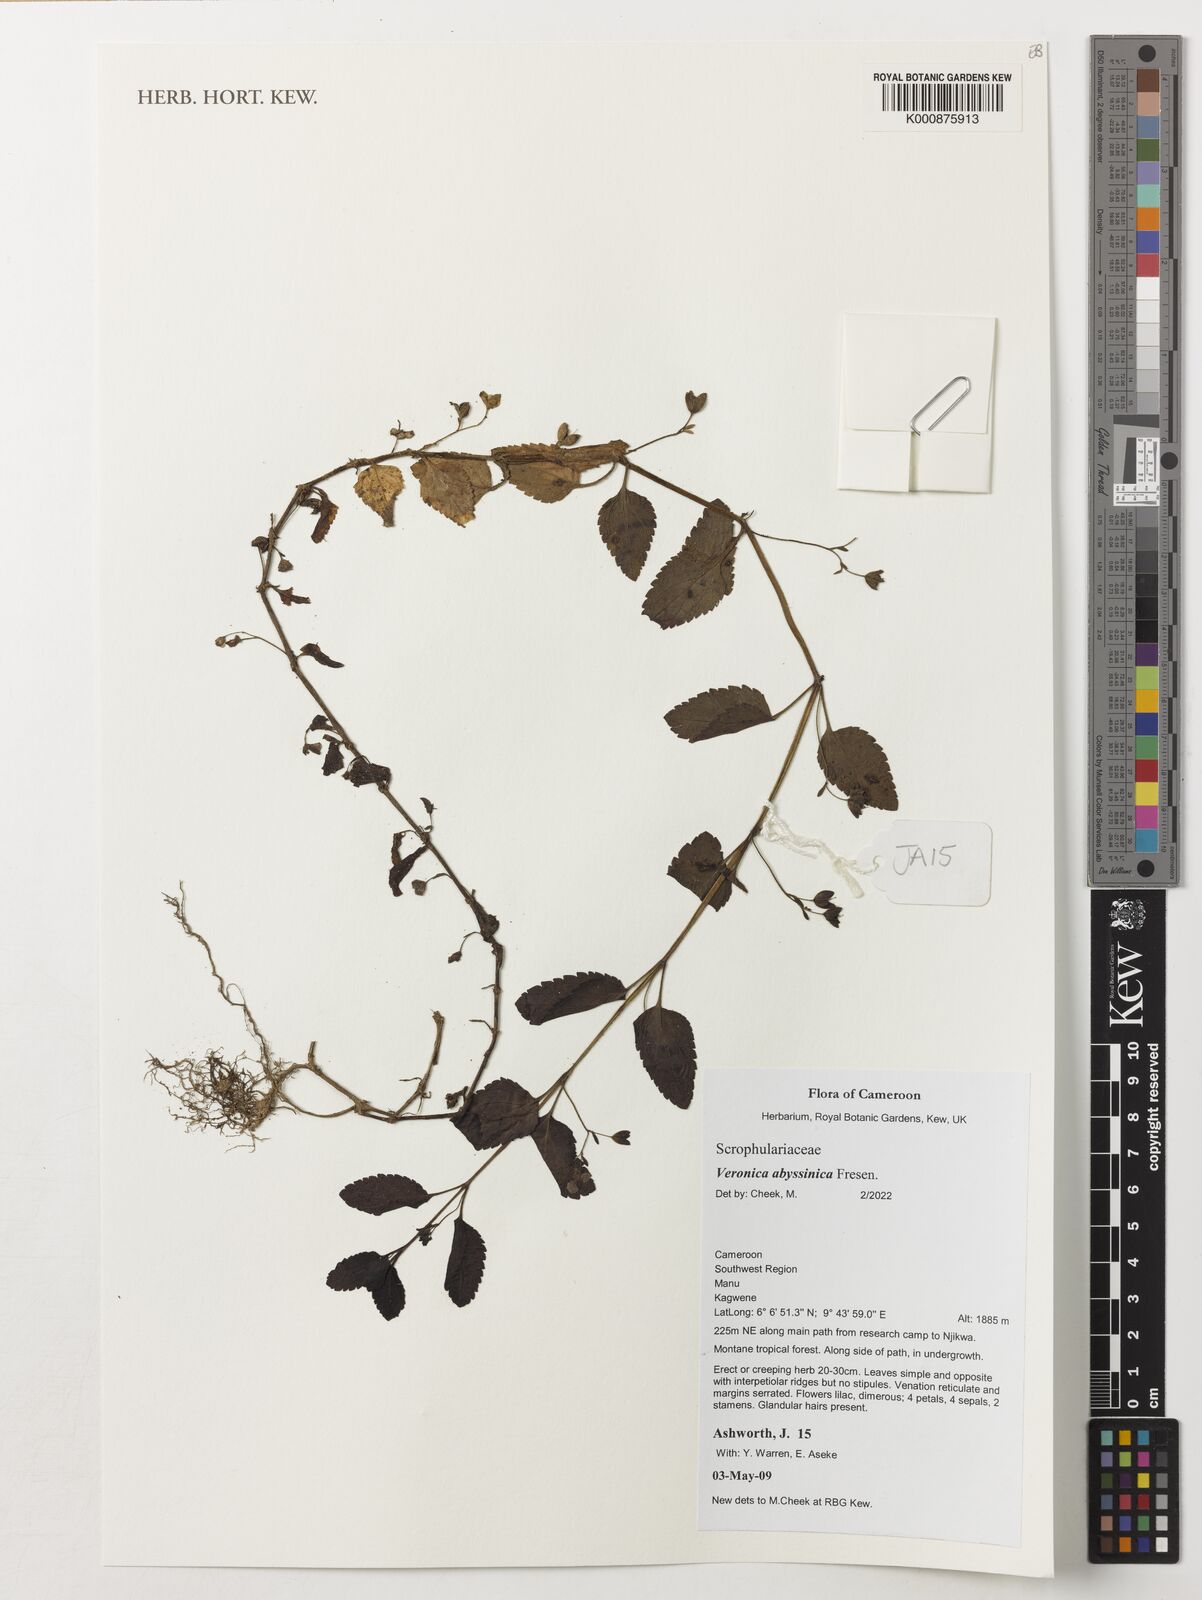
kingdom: Plantae
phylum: Tracheophyta
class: Magnoliopsida
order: Lamiales
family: Plantaginaceae
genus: Veronica
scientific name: Veronica abyssinica
